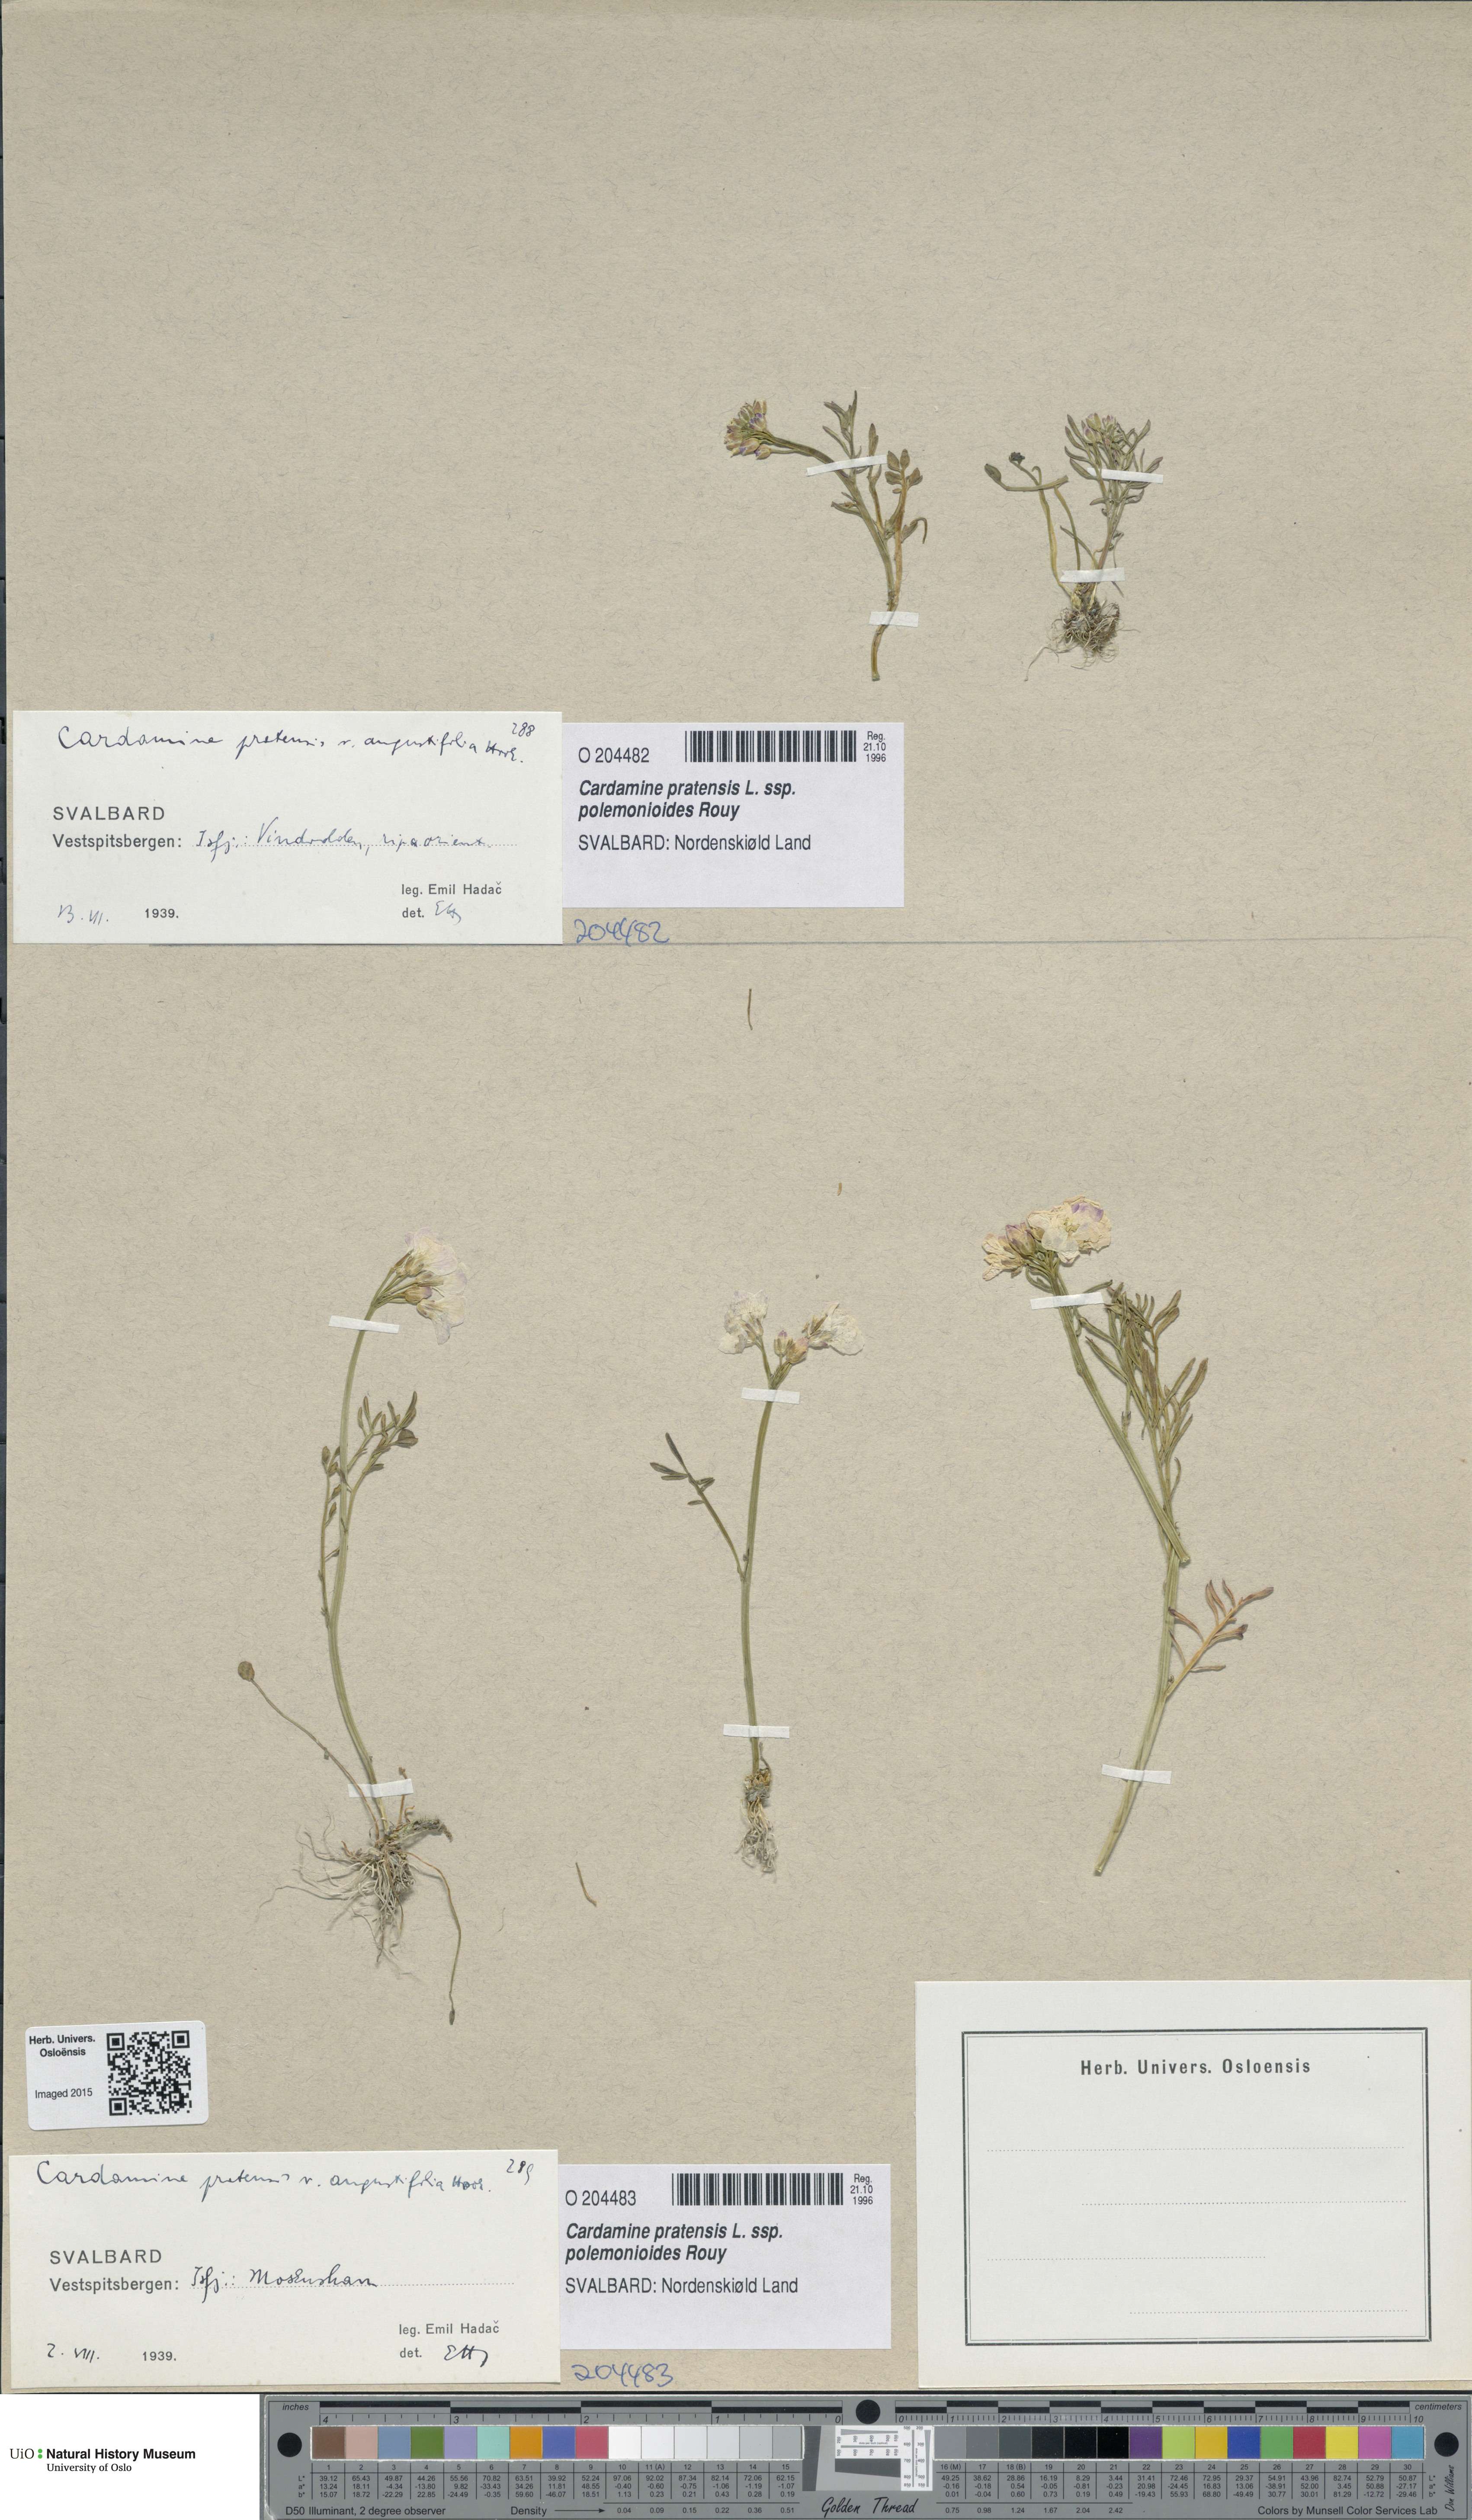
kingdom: Plantae
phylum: Tracheophyta
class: Magnoliopsida
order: Brassicales
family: Brassicaceae
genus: Cardamine
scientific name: Cardamine nymanii
